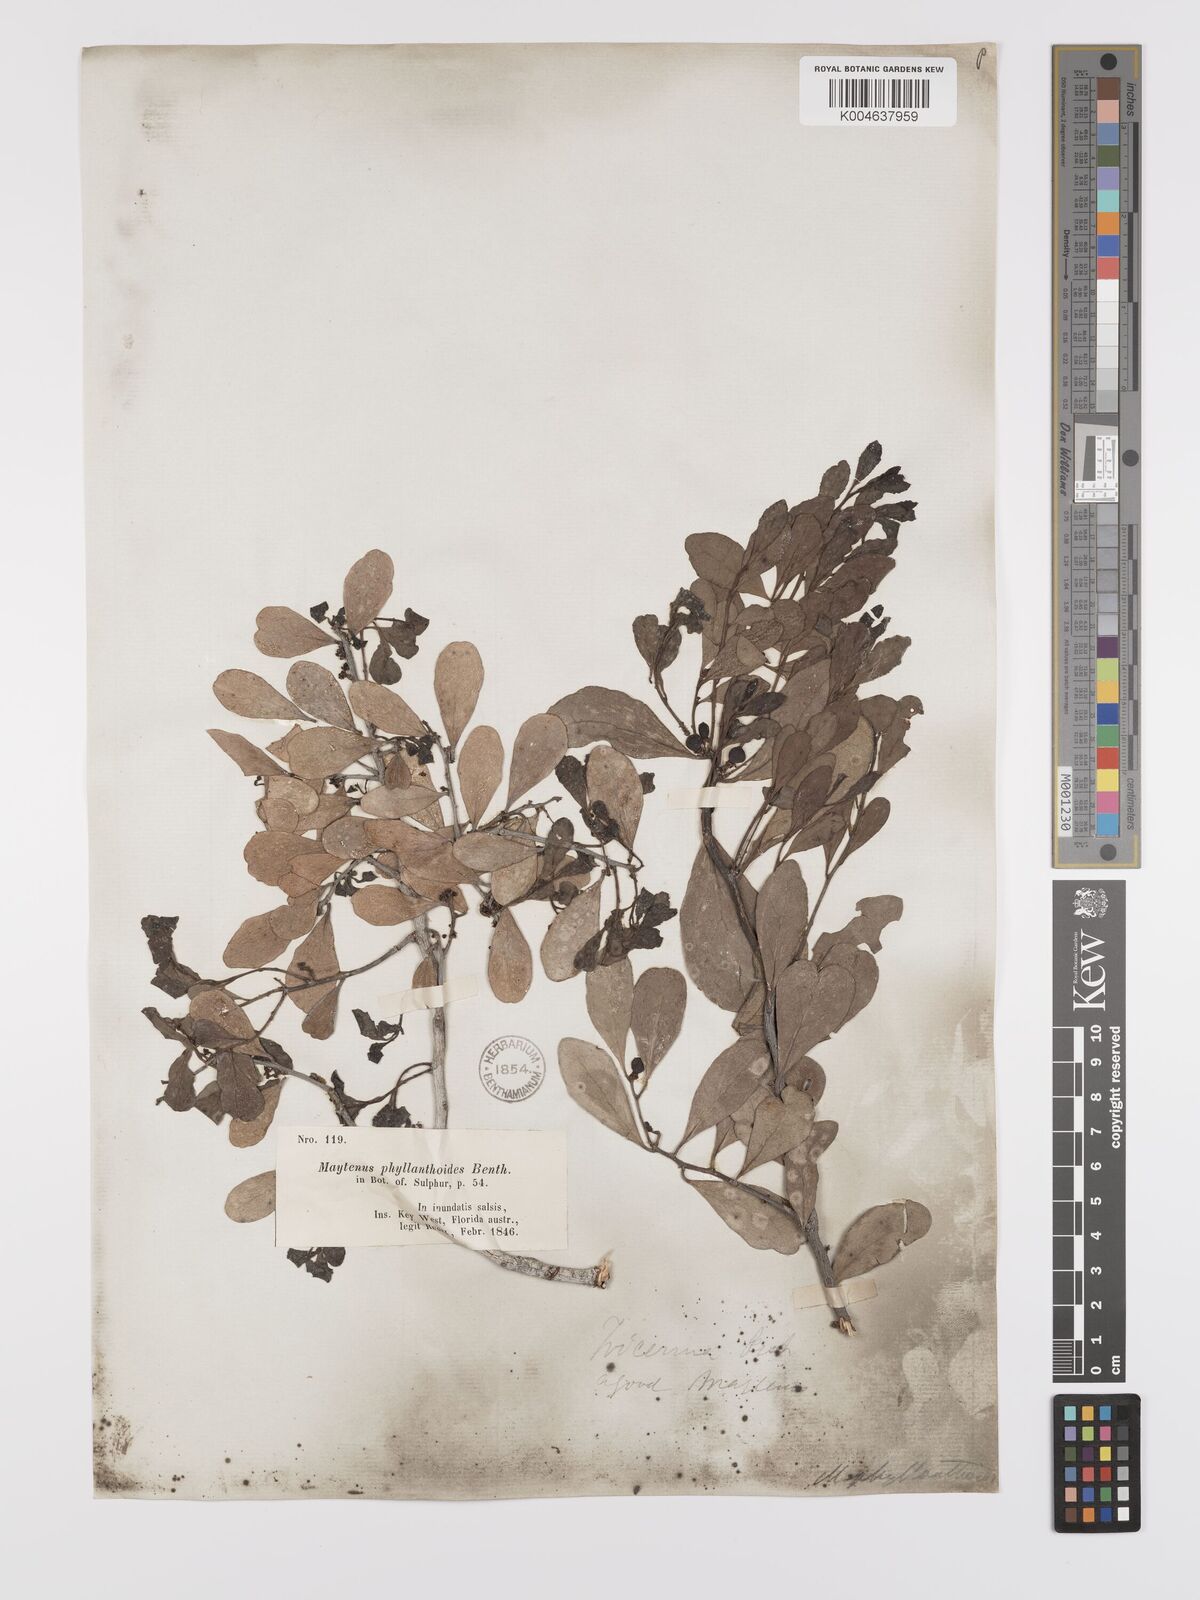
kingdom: Plantae
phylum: Tracheophyta
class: Magnoliopsida
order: Celastrales
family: Celastraceae
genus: Tricerma
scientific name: Tricerma phyllanthoides
